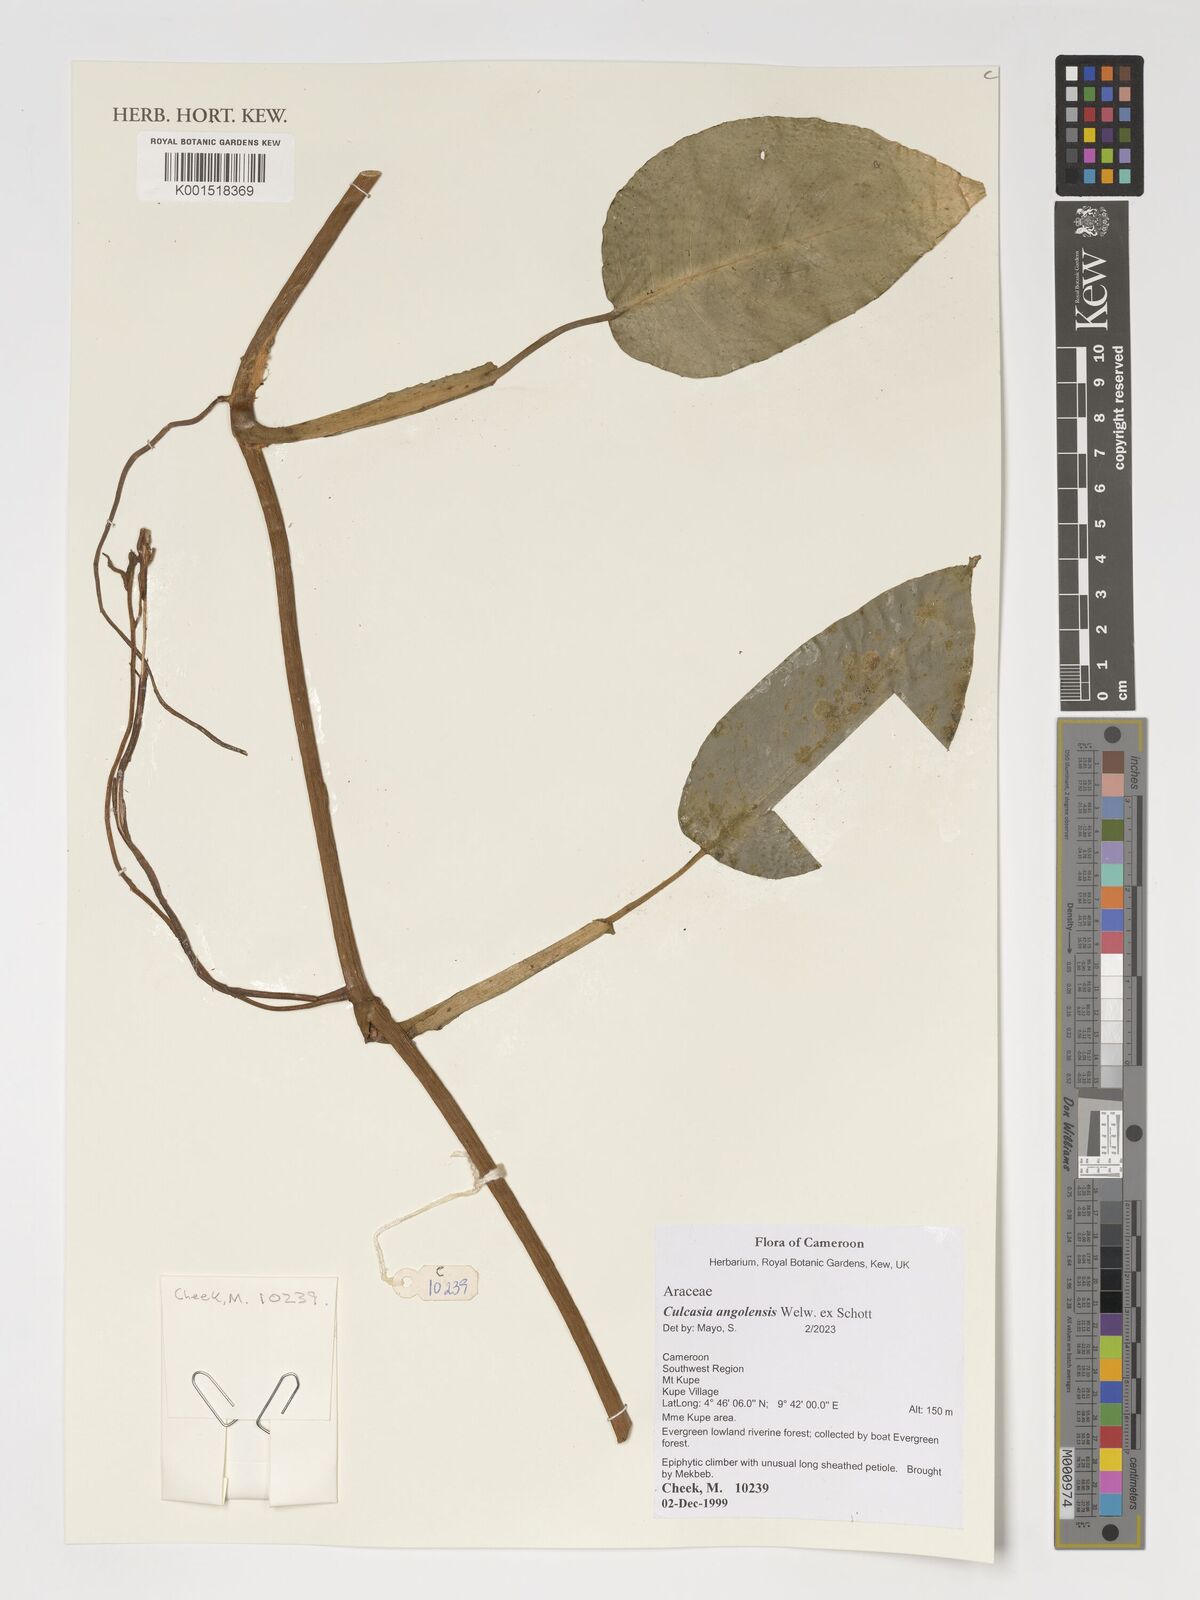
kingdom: Plantae
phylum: Tracheophyta
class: Liliopsida
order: Alismatales
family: Araceae
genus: Culcasia
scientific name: Culcasia angolensis
